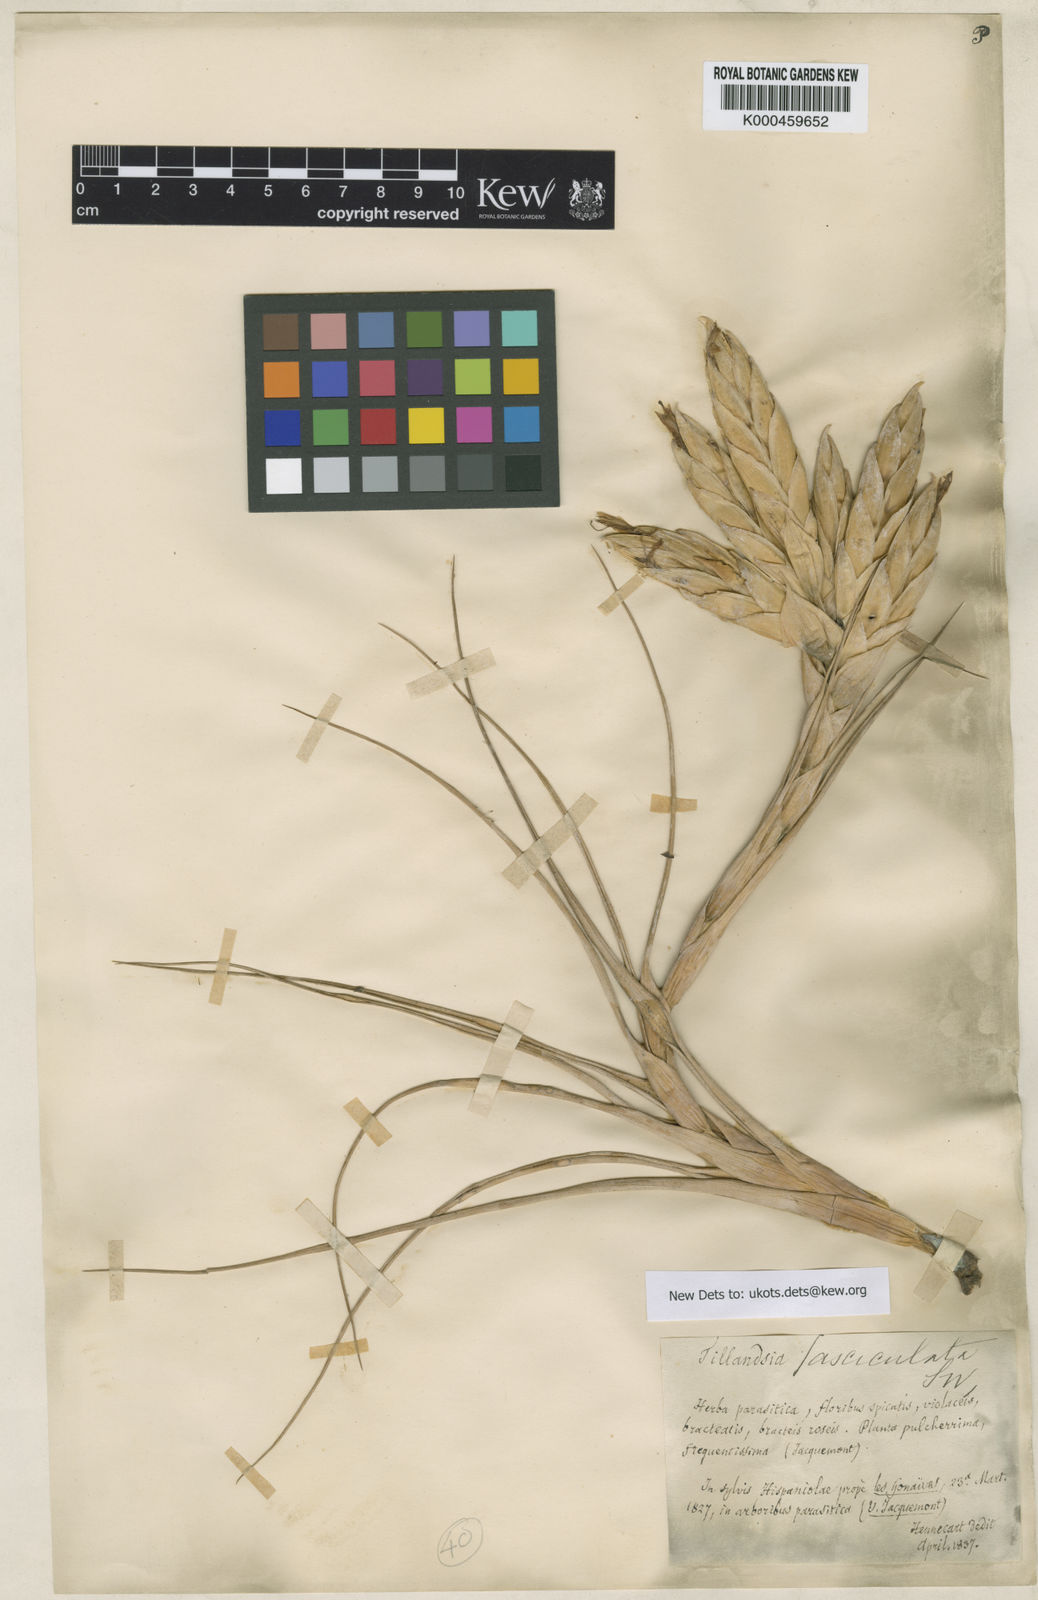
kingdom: Plantae
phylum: Tracheophyta
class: Liliopsida
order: Poales
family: Bromeliaceae
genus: Tillandsia
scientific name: Tillandsia
